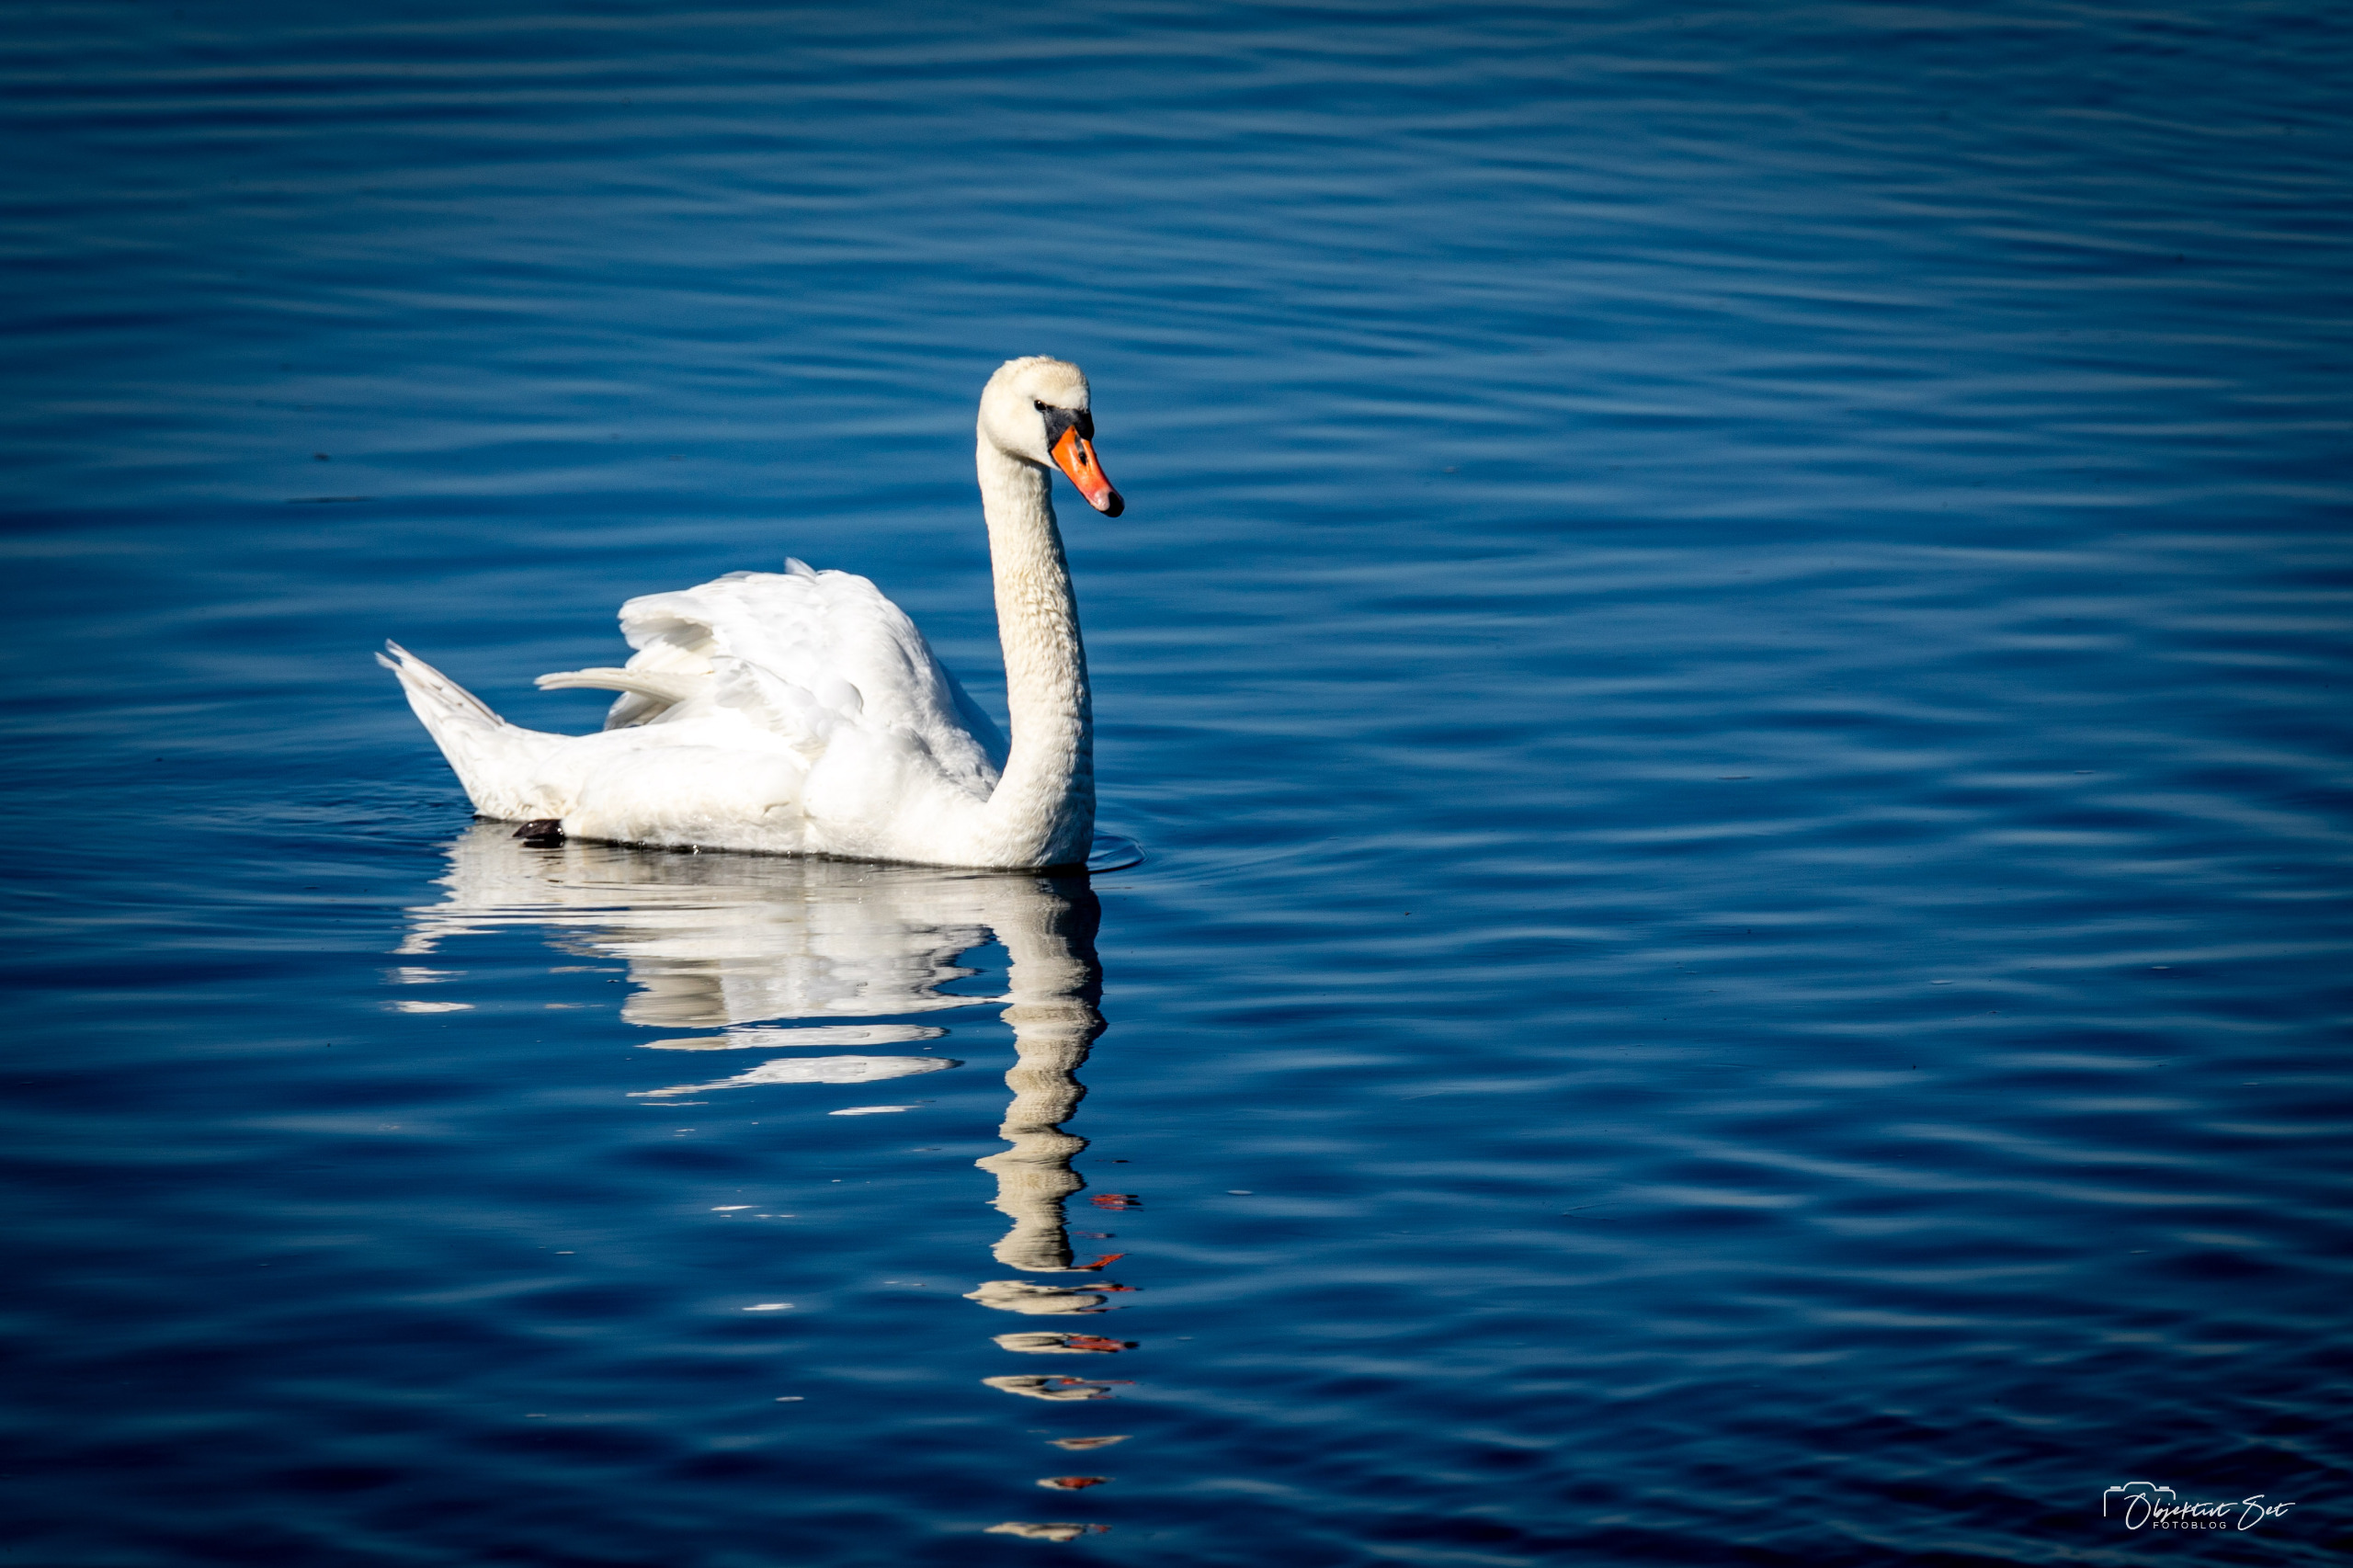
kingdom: Animalia
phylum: Chordata
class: Aves
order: Anseriformes
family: Anatidae
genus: Cygnus
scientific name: Cygnus olor
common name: Knopsvane
